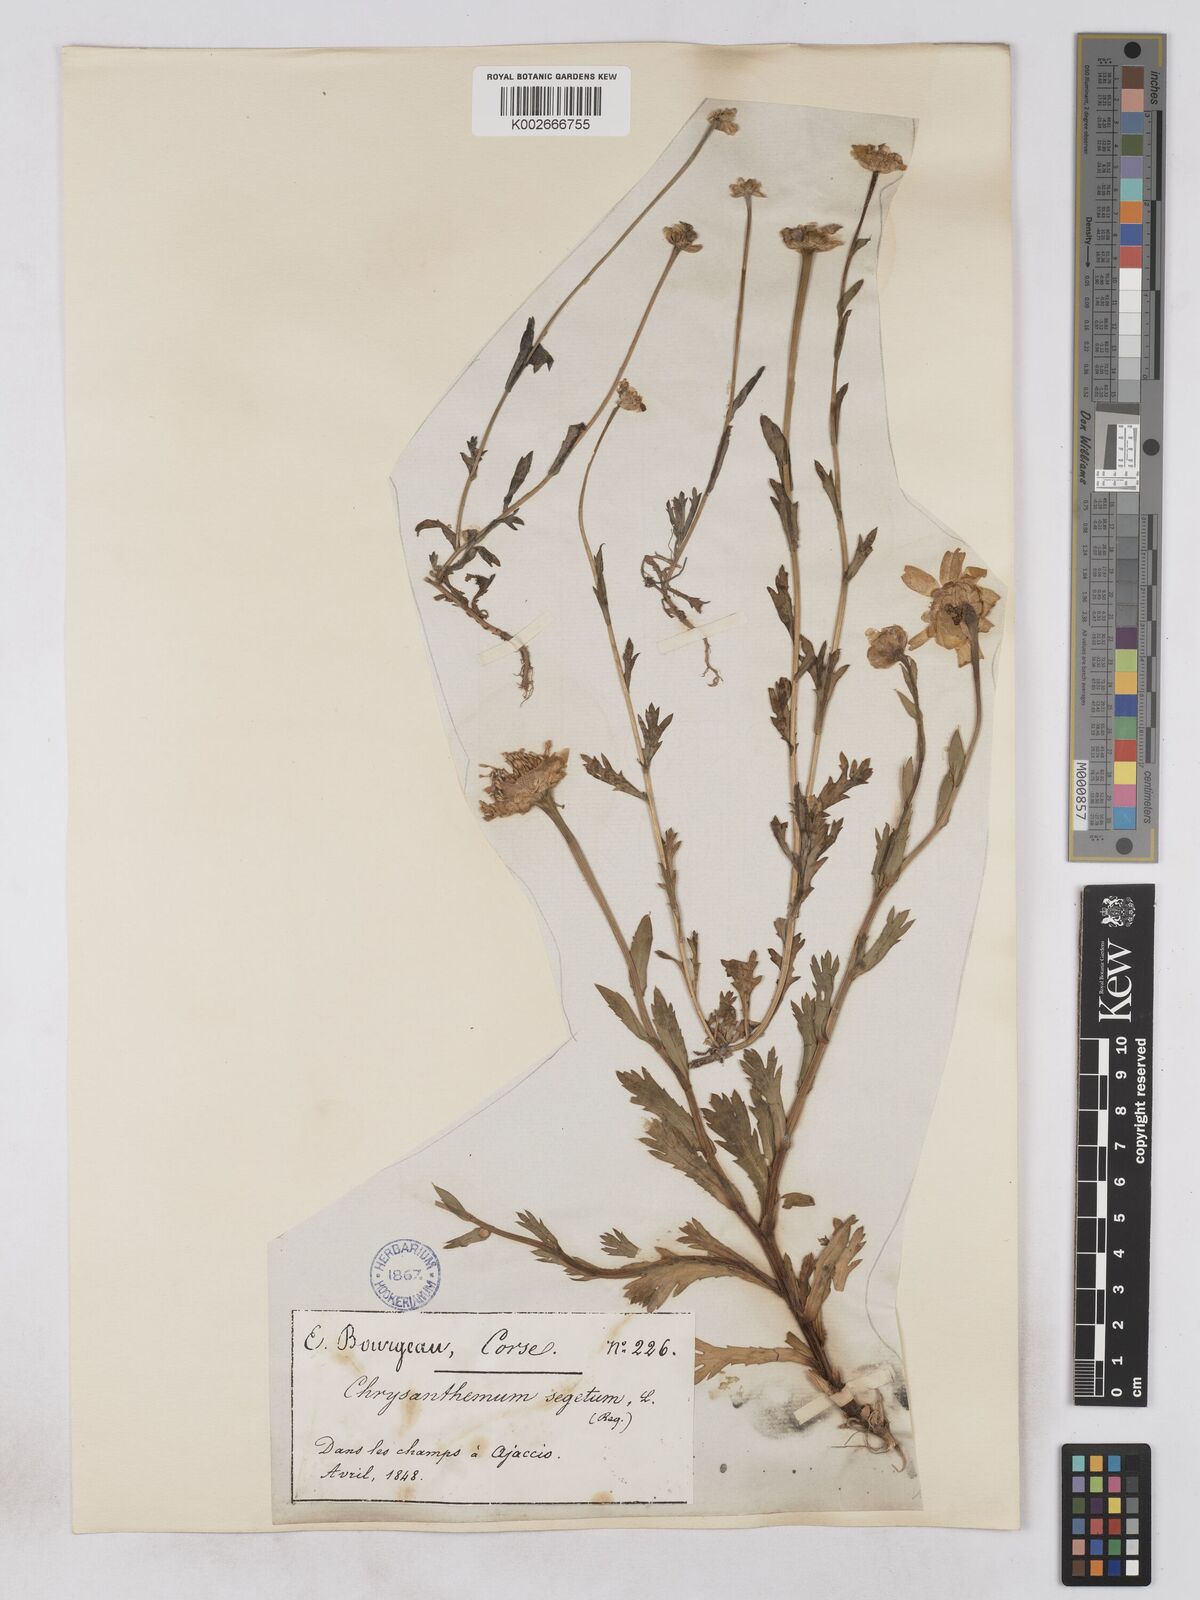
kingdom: Plantae
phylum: Tracheophyta
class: Magnoliopsida
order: Asterales
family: Asteraceae
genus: Glebionis
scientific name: Glebionis segetum
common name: Corndaisy
